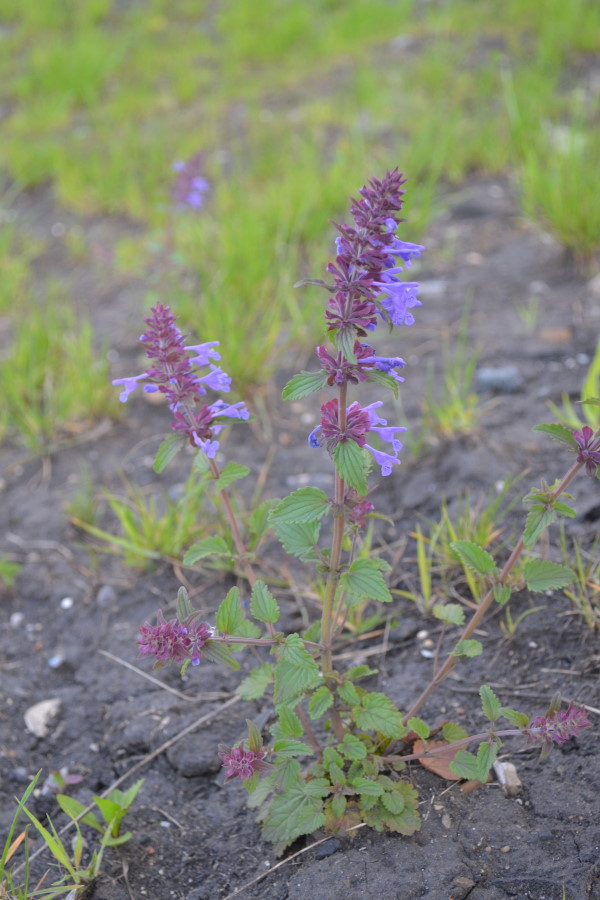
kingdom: Plantae
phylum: Tracheophyta
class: Magnoliopsida
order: Lamiales
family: Lamiaceae
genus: Dracocephalum
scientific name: Dracocephalum nutans
